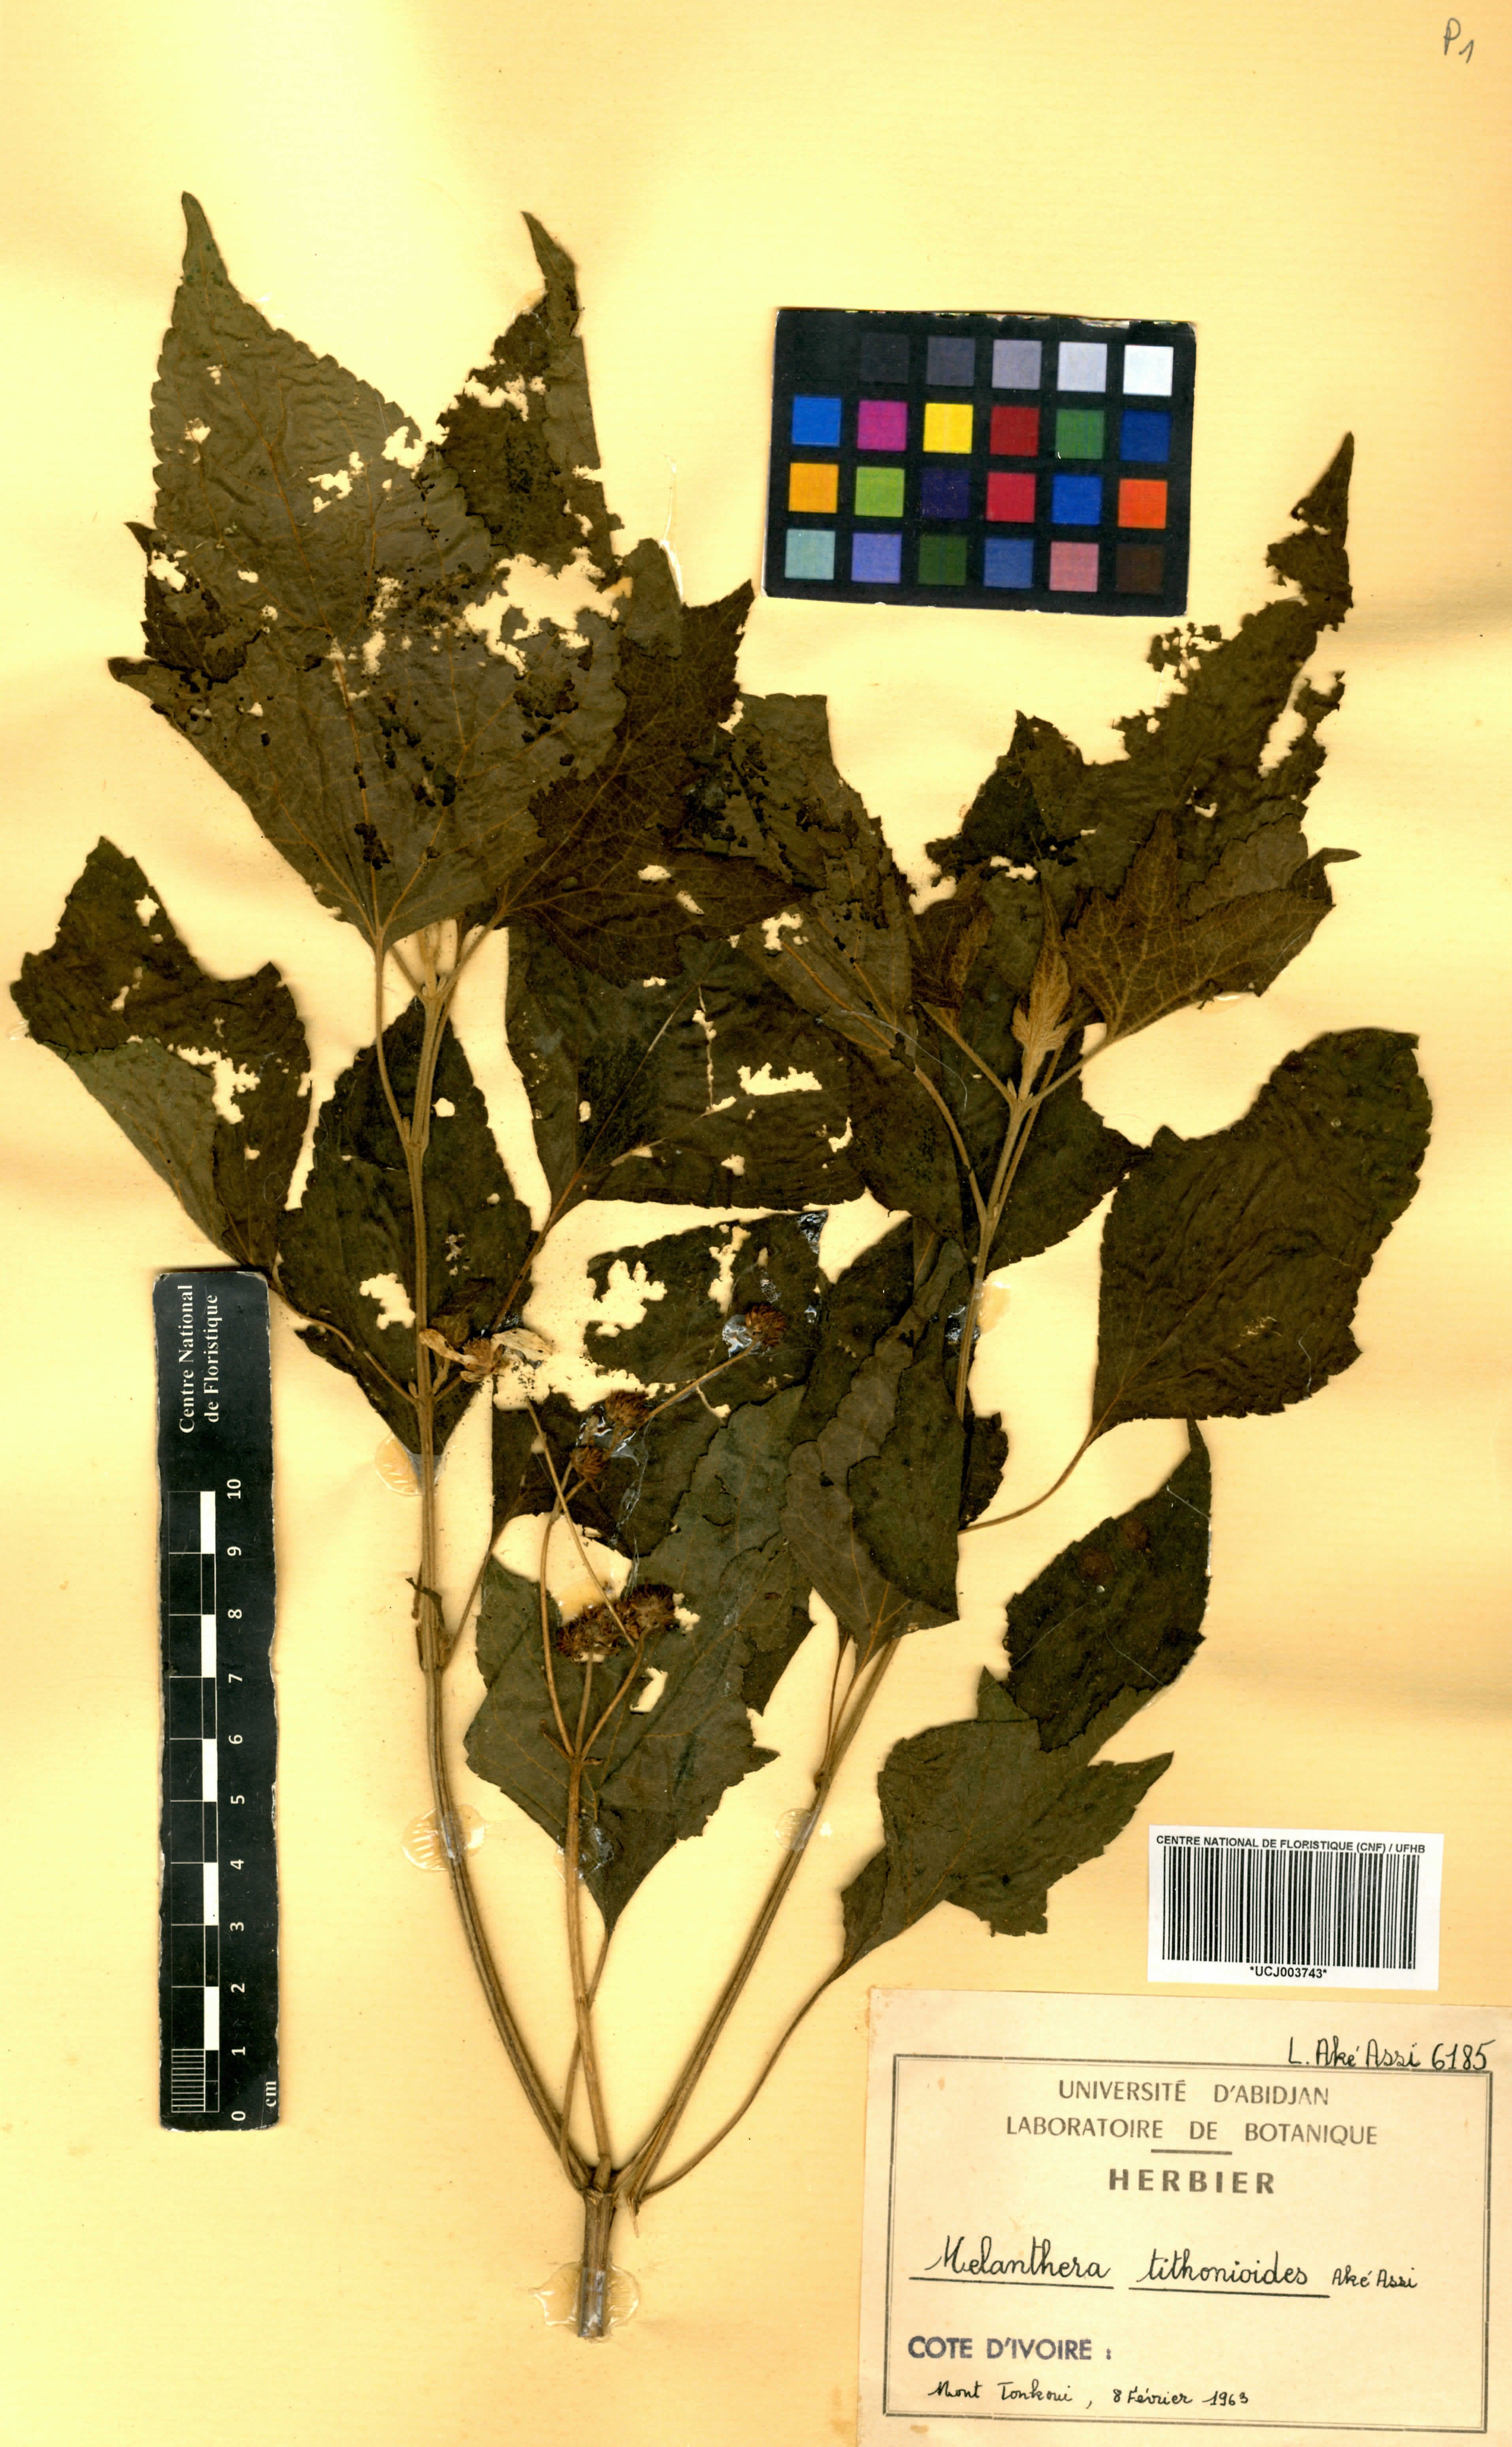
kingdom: Plantae
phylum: Tracheophyta
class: Magnoliopsida
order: Asterales
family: Asteraceae
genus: Lipotriche
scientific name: Lipotriche tithonioides
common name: Simandou daisy
